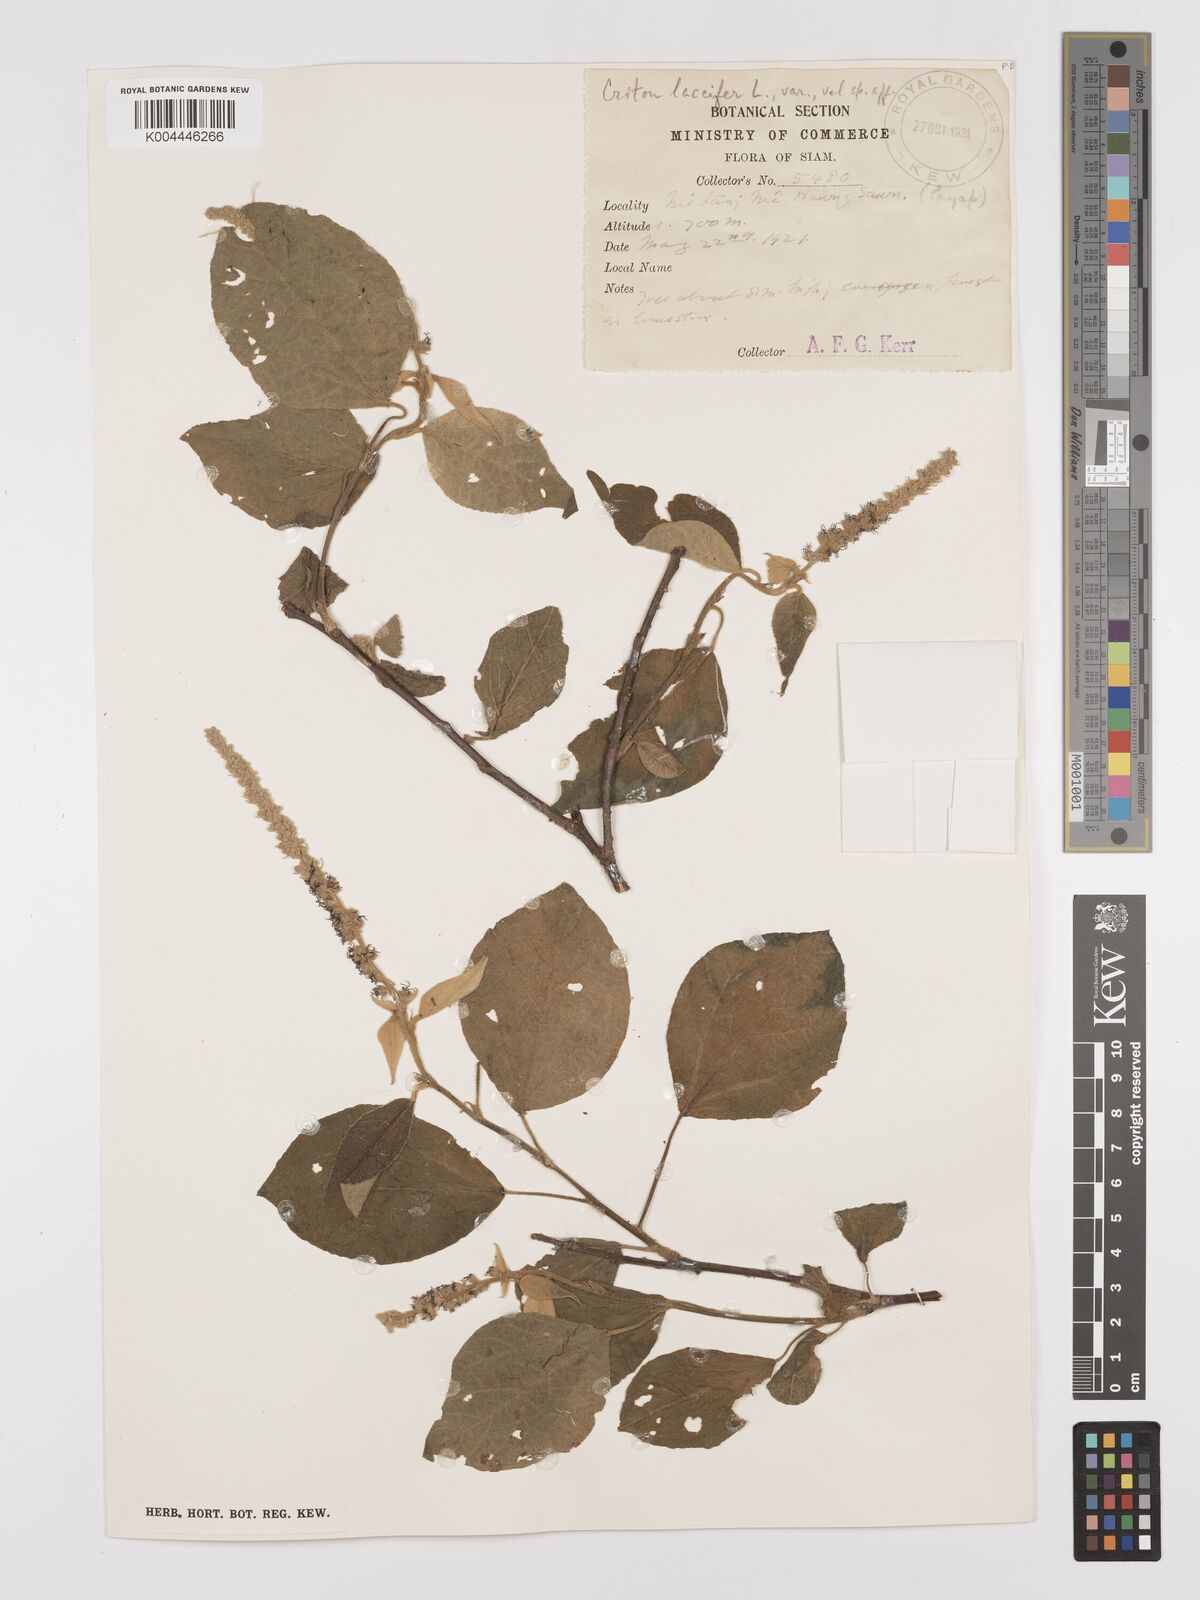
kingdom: Plantae
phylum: Tracheophyta
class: Magnoliopsida
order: Malpighiales
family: Euphorbiaceae
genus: Croton
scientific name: Croton aromaticus
